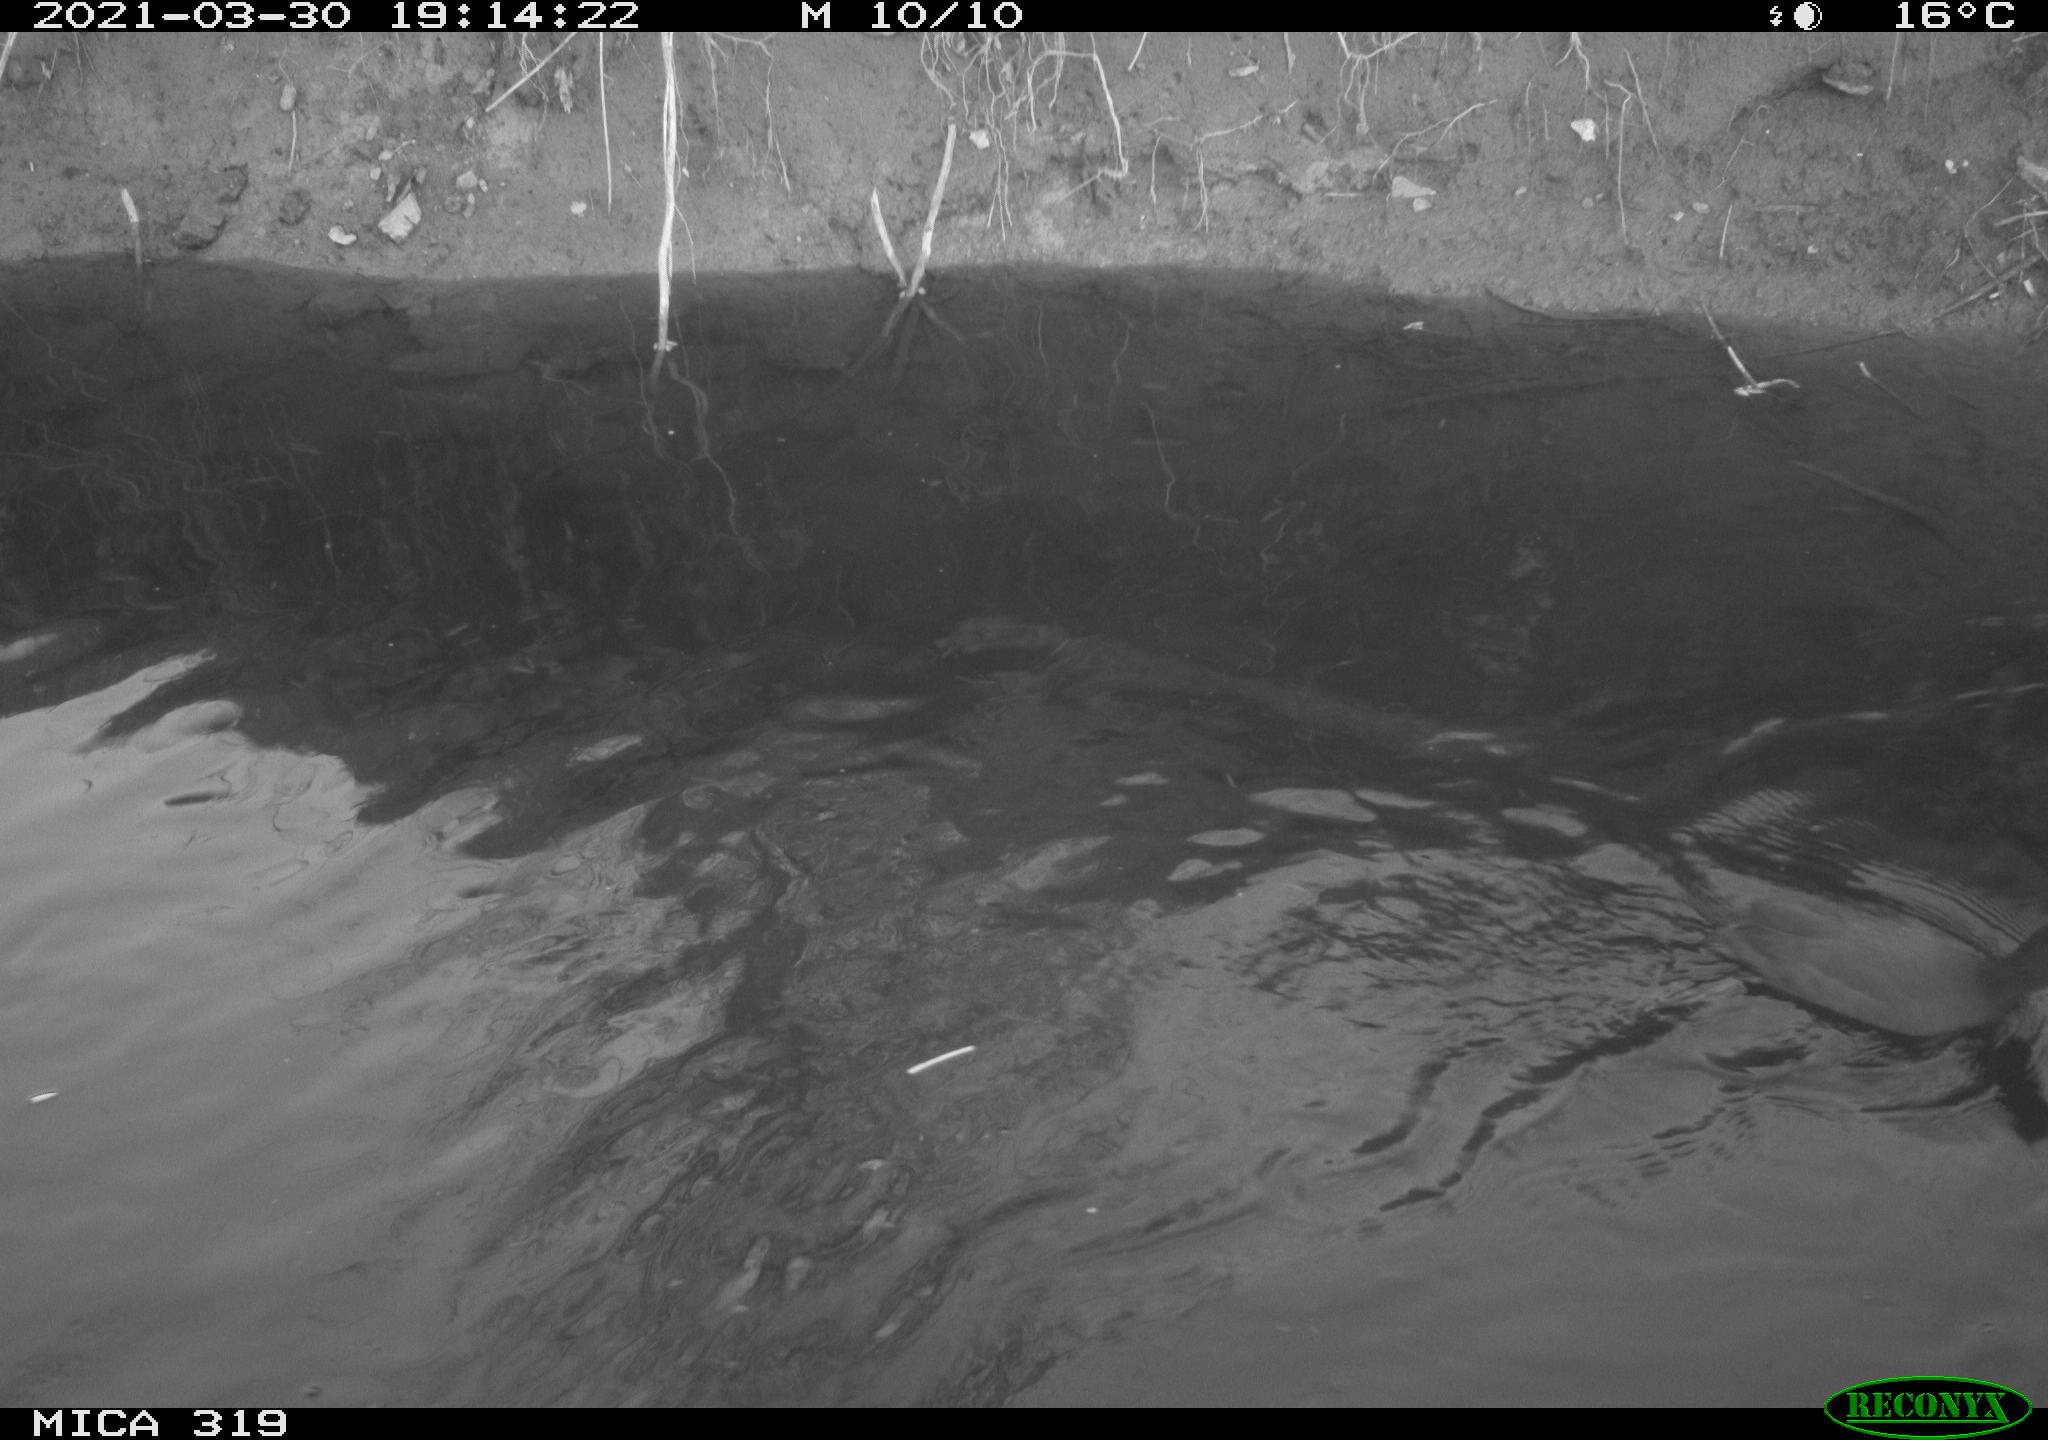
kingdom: Animalia
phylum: Chordata
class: Aves
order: Gruiformes
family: Rallidae
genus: Fulica
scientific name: Fulica atra
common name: Eurasian coot
